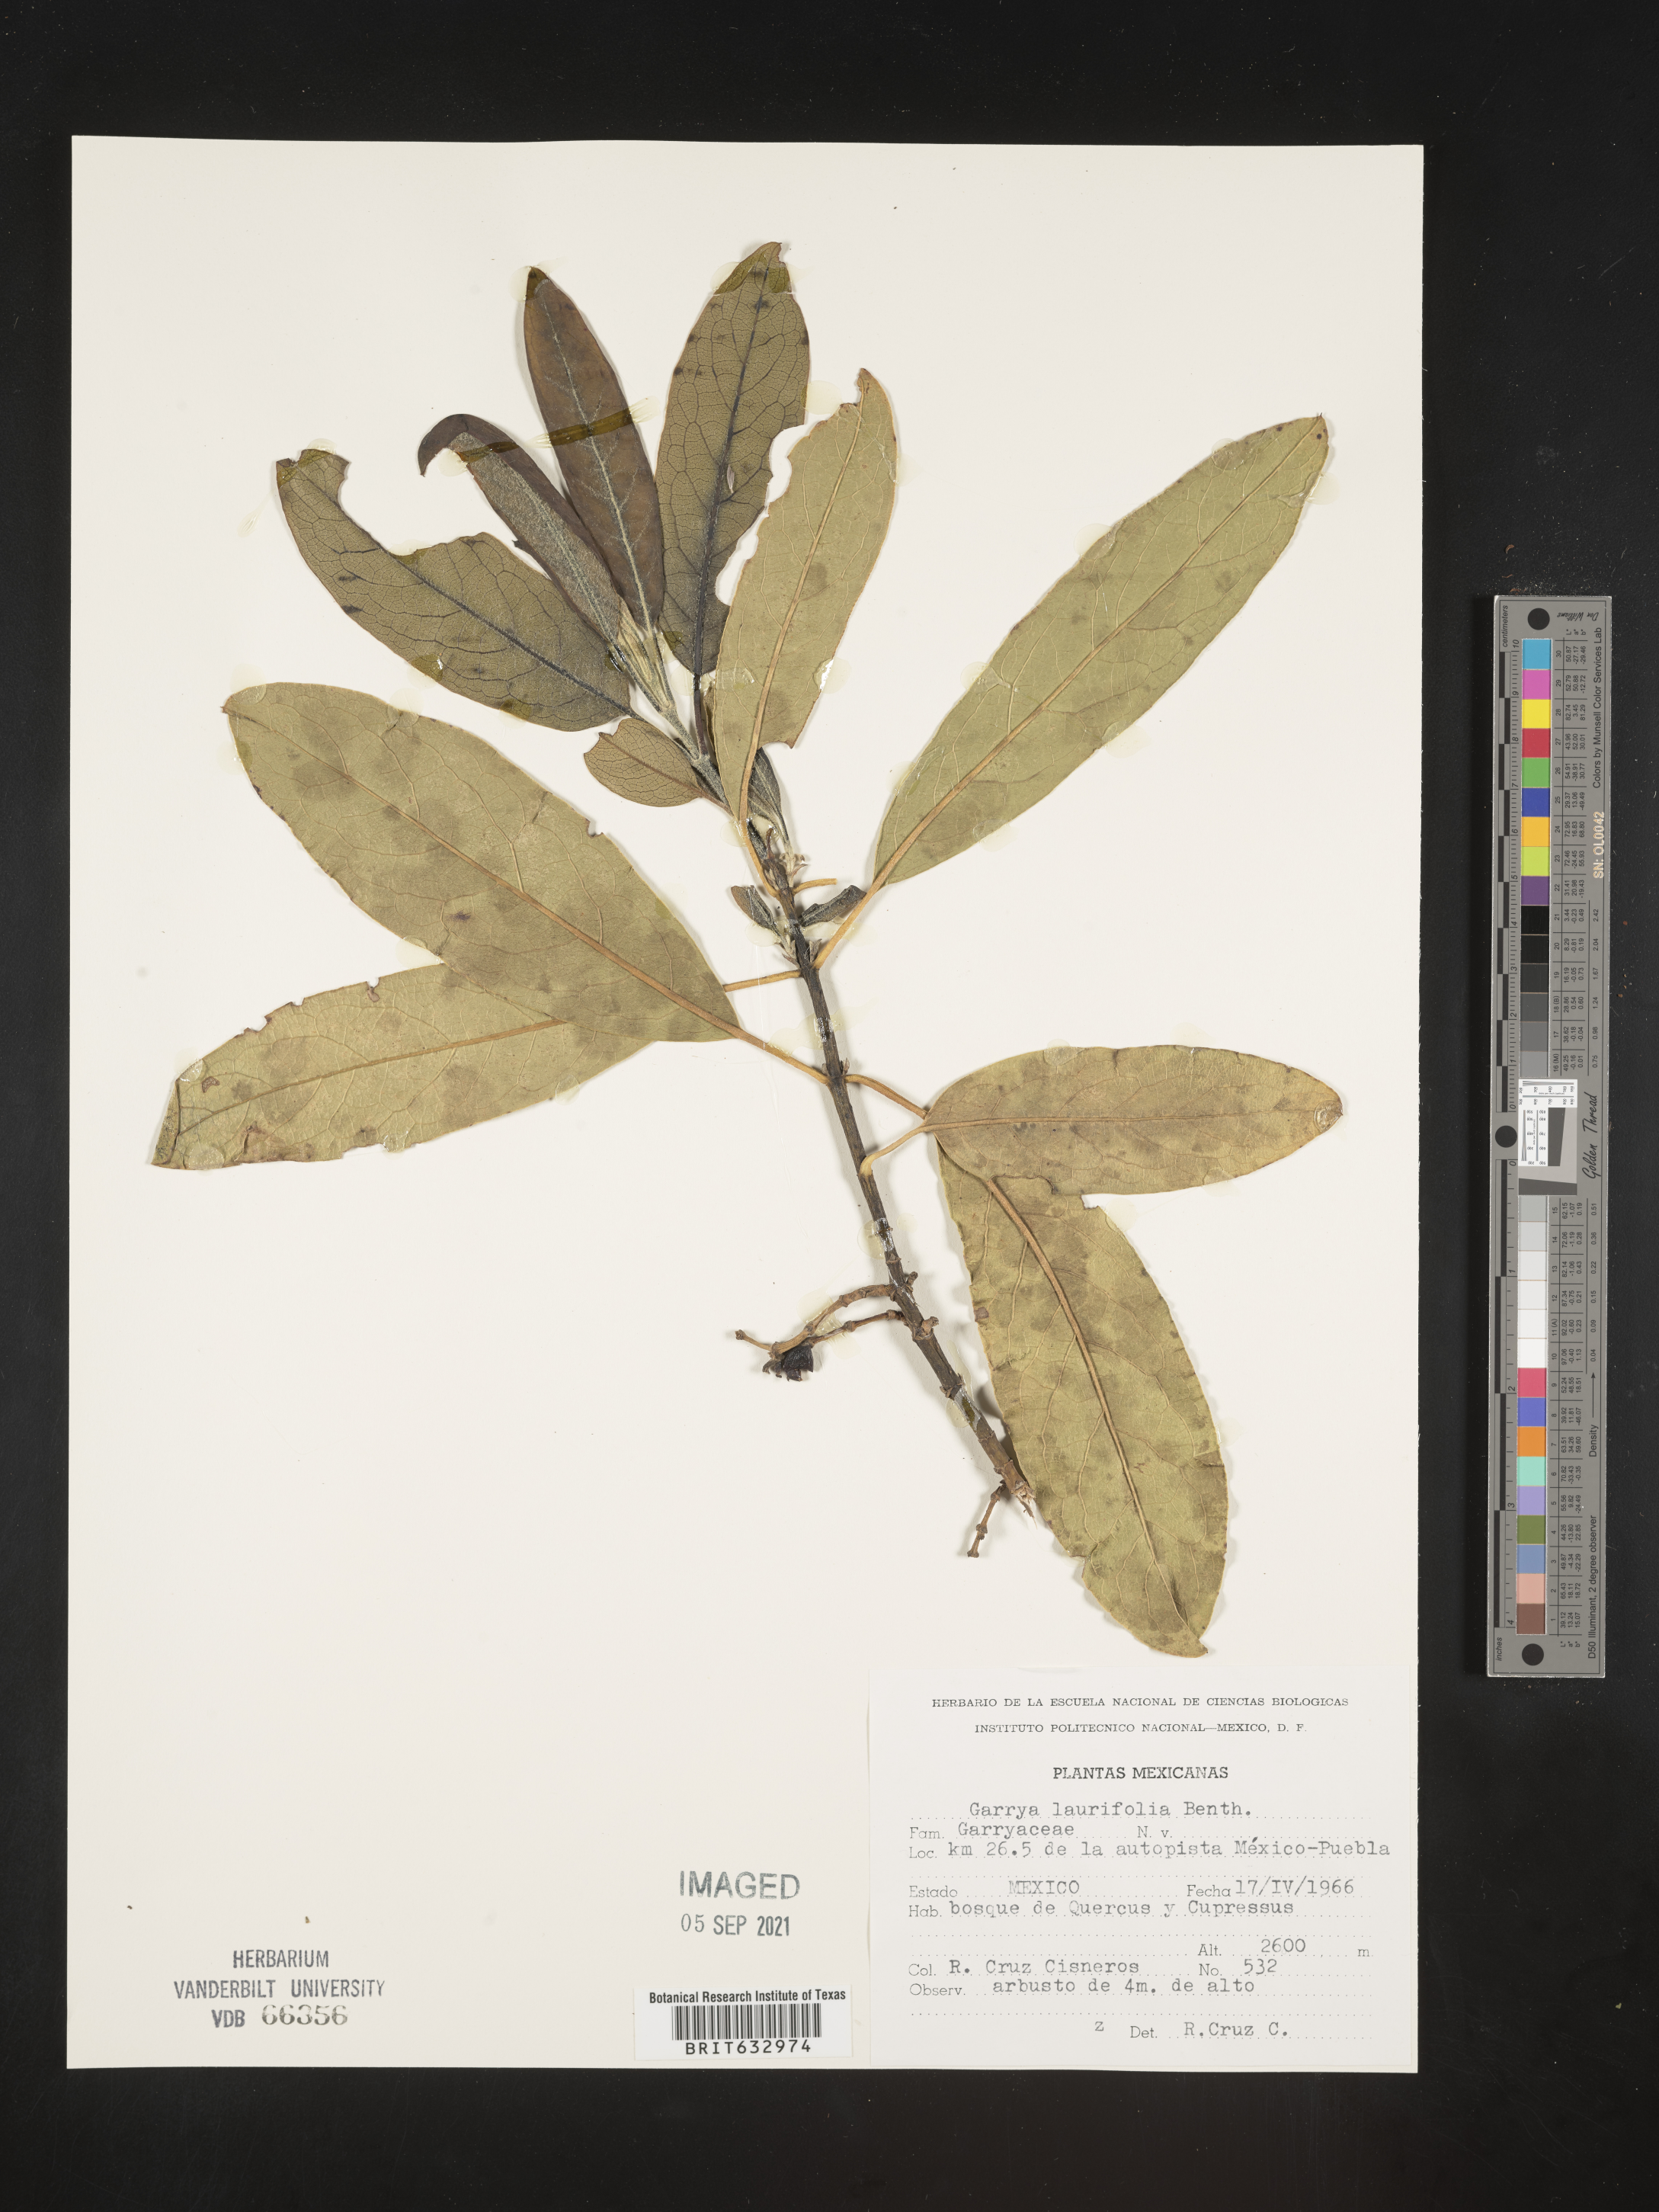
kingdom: Plantae
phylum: Tracheophyta
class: Magnoliopsida
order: Garryales
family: Garryaceae
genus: Garrya
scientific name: Garrya
